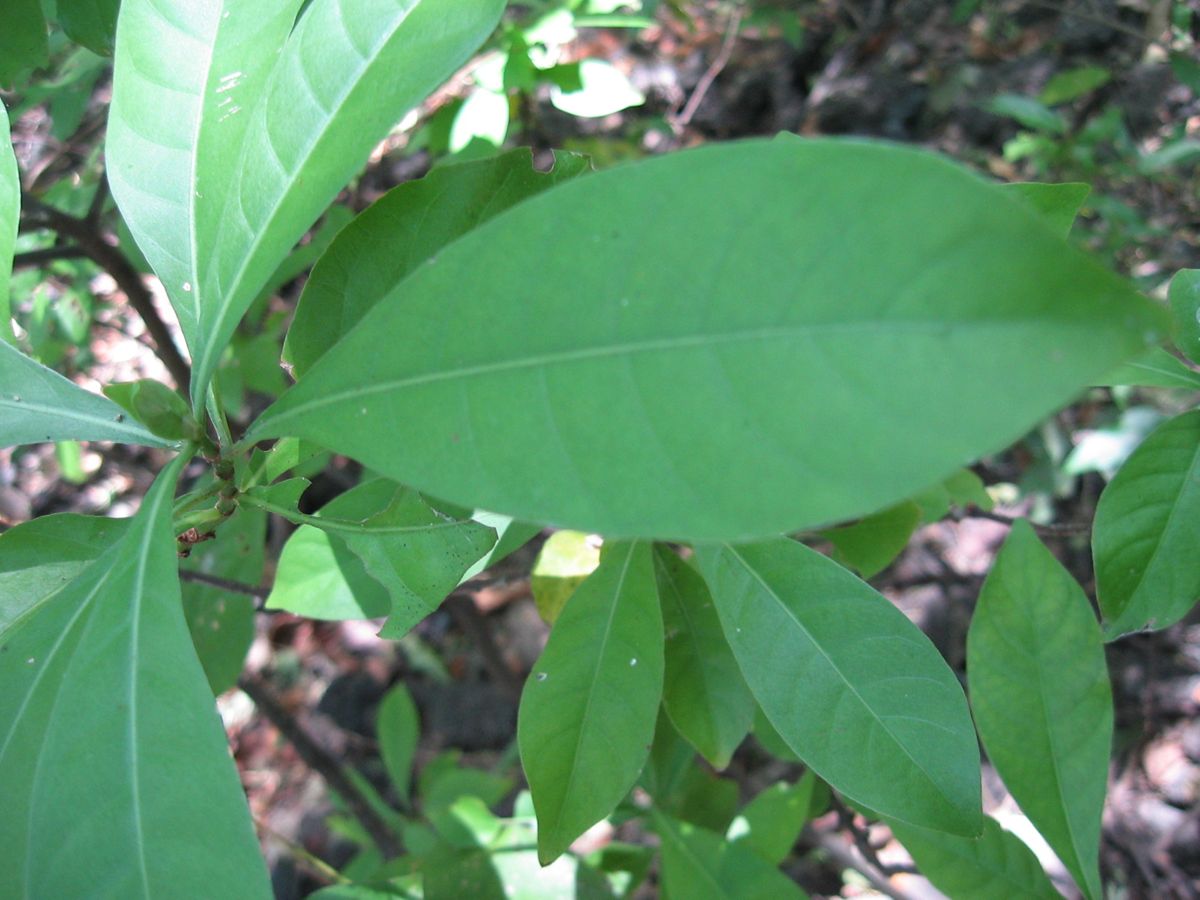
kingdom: Plantae
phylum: Tracheophyta
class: Magnoliopsida
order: Gentianales
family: Rubiaceae
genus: Psychotria
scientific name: Psychotria
